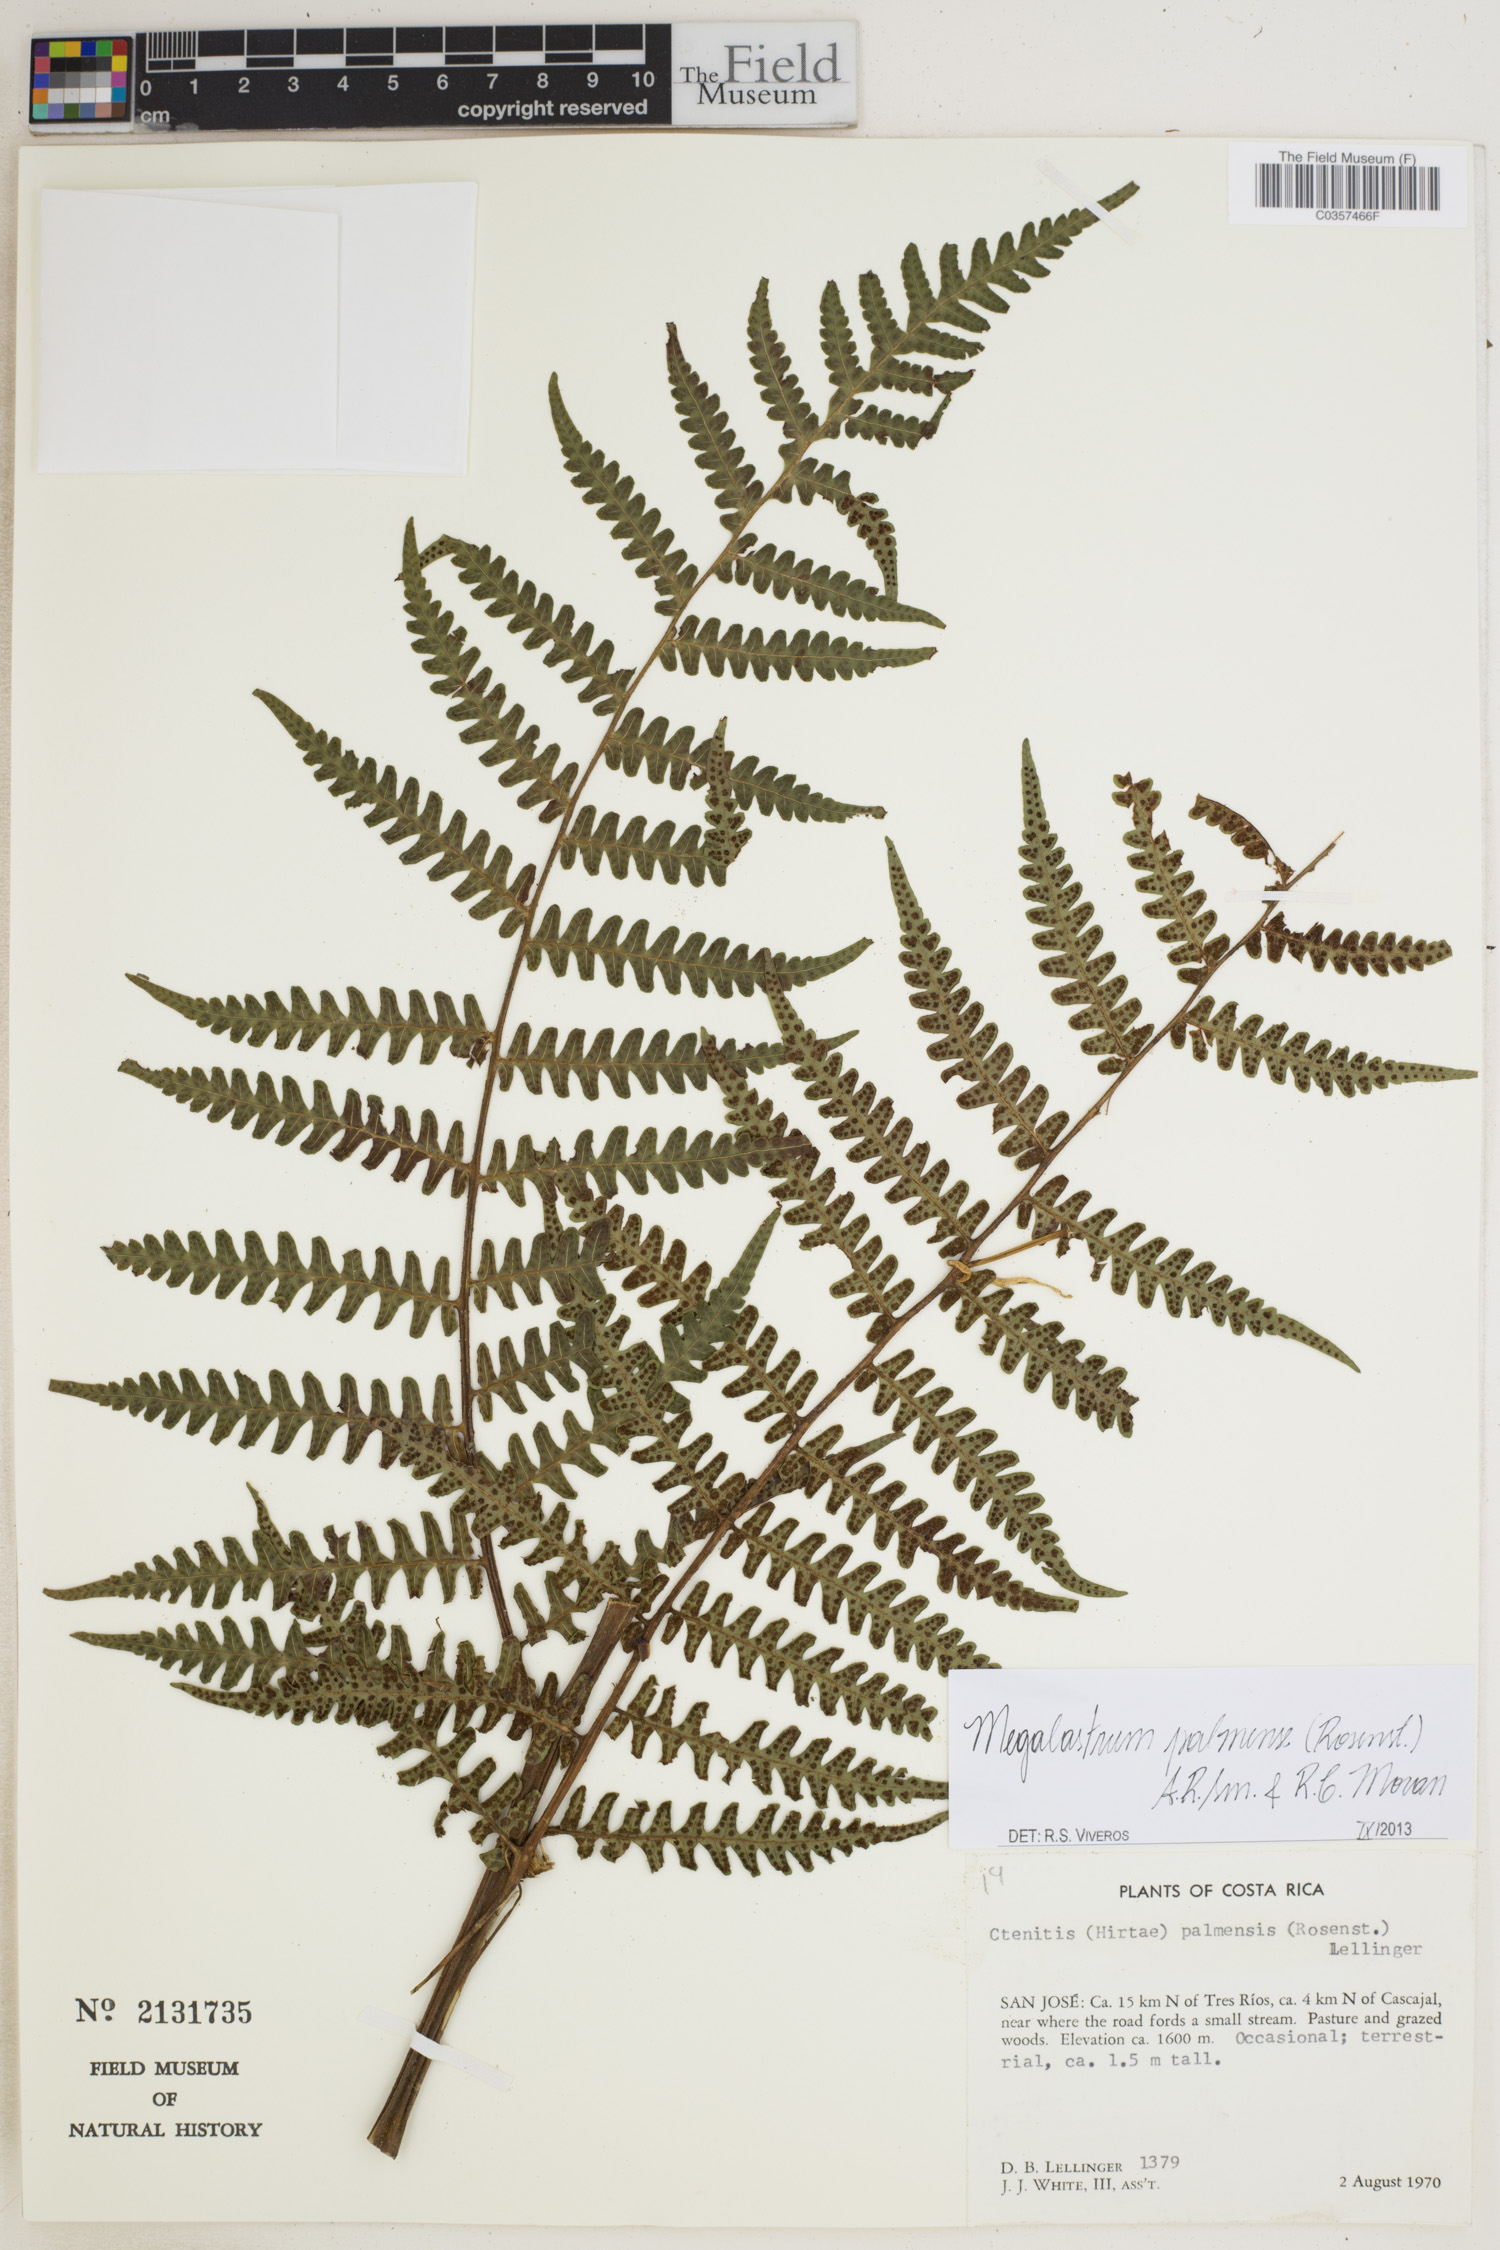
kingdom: Plantae
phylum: Tracheophyta
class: Polypodiopsida
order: Polypodiales
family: Dryopteridaceae
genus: Megalastrum
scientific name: Megalastrum palmense
